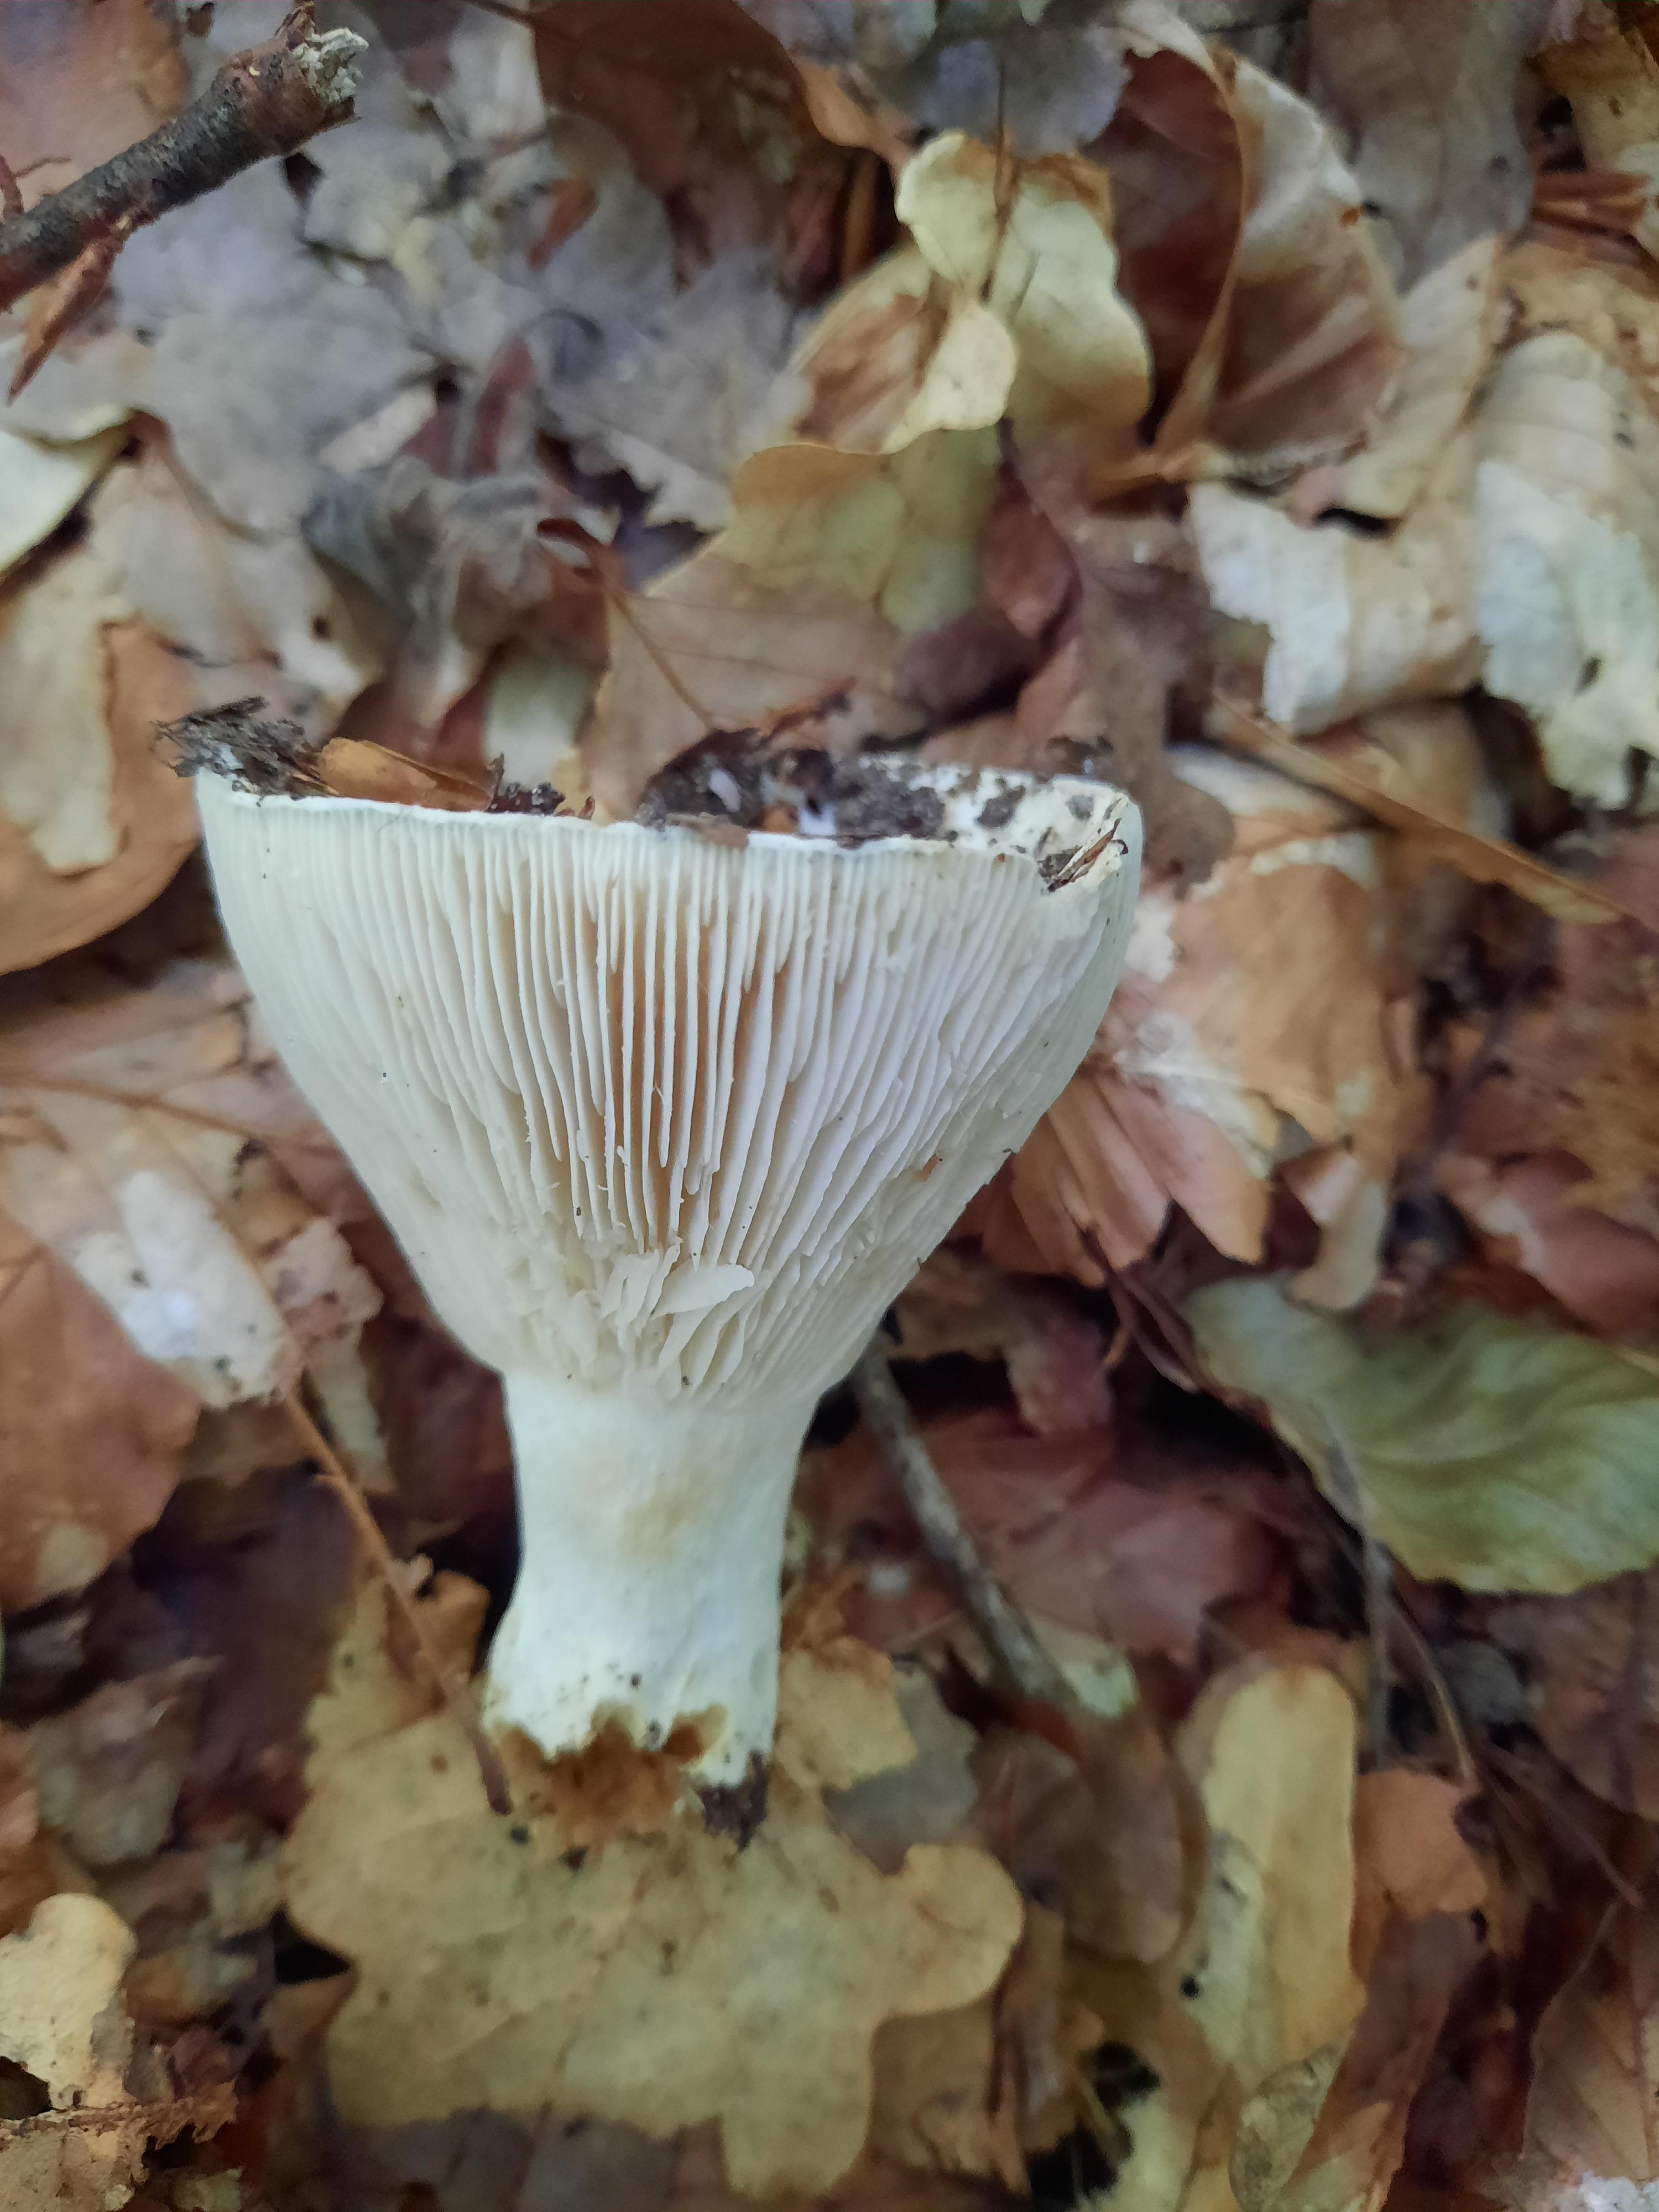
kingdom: Fungi
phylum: Basidiomycota
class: Agaricomycetes
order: Russulales
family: Russulaceae
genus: Russula
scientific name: Russula
